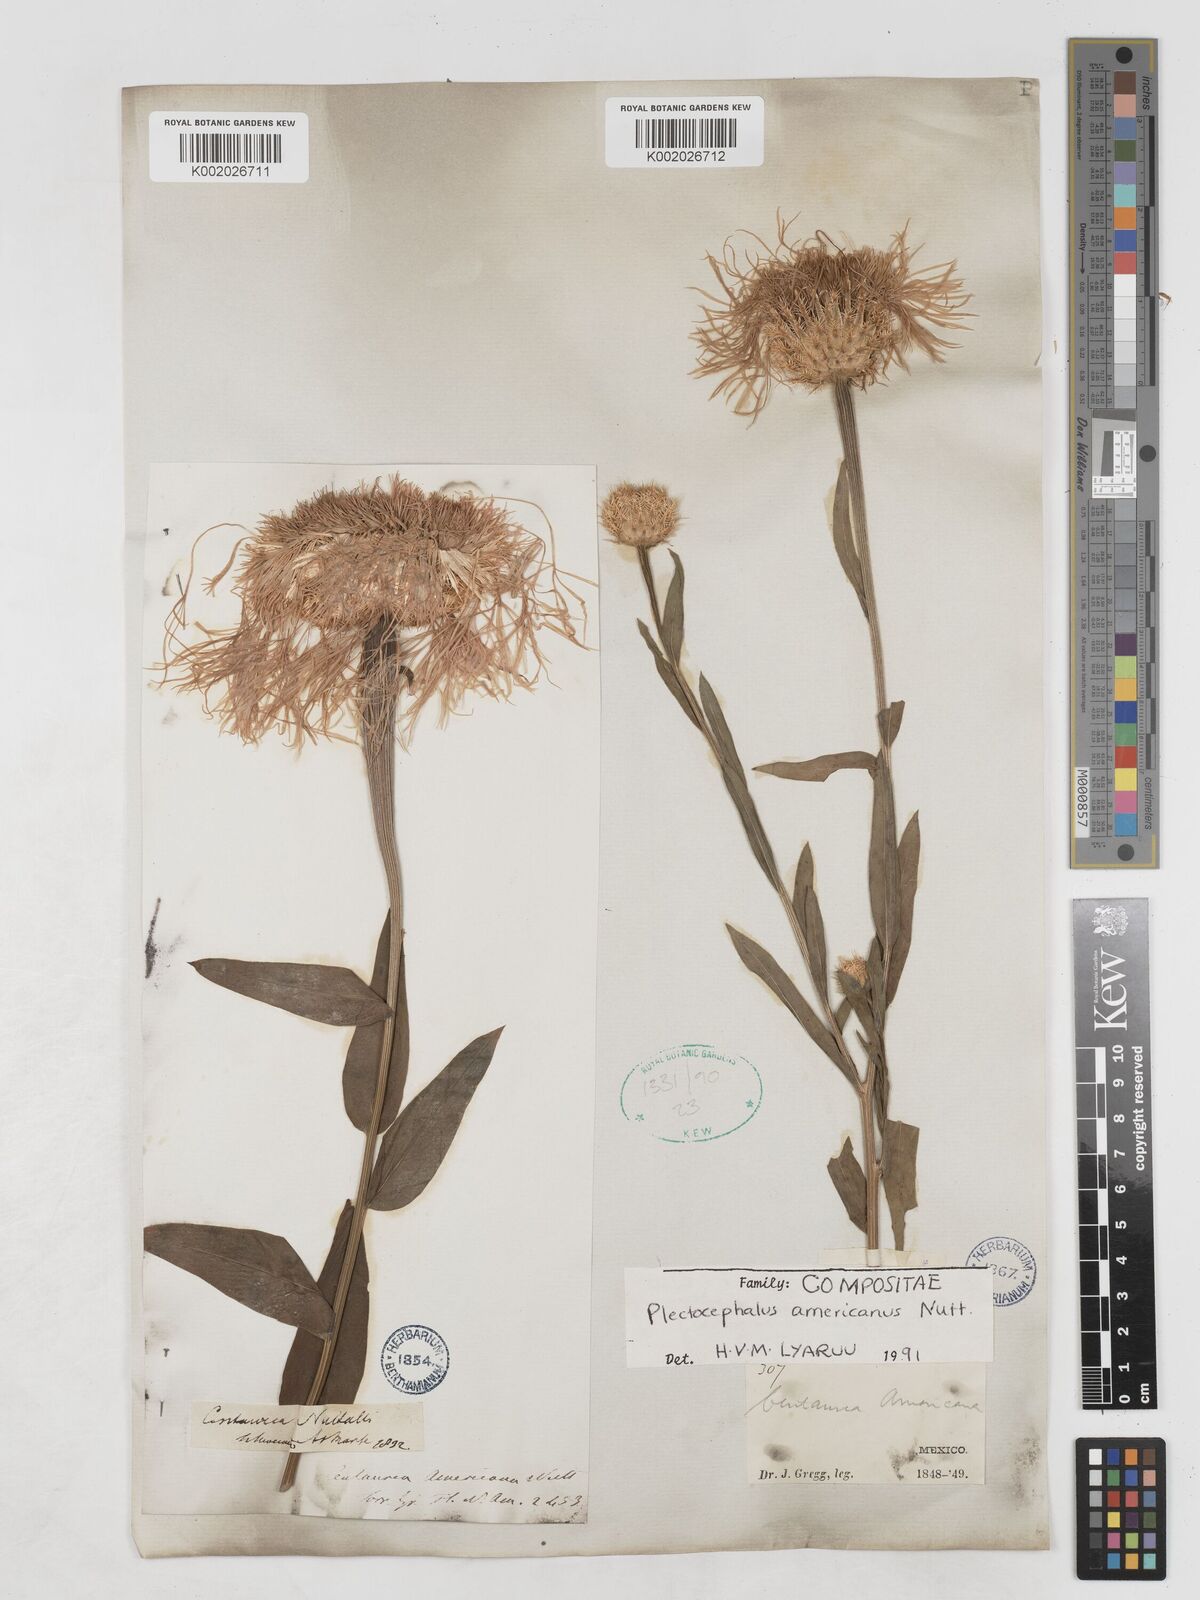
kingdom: Plantae
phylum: Tracheophyta
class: Magnoliopsida
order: Asterales
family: Asteraceae
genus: Plectocephalus
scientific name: Plectocephalus americanus
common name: American basket-flower
